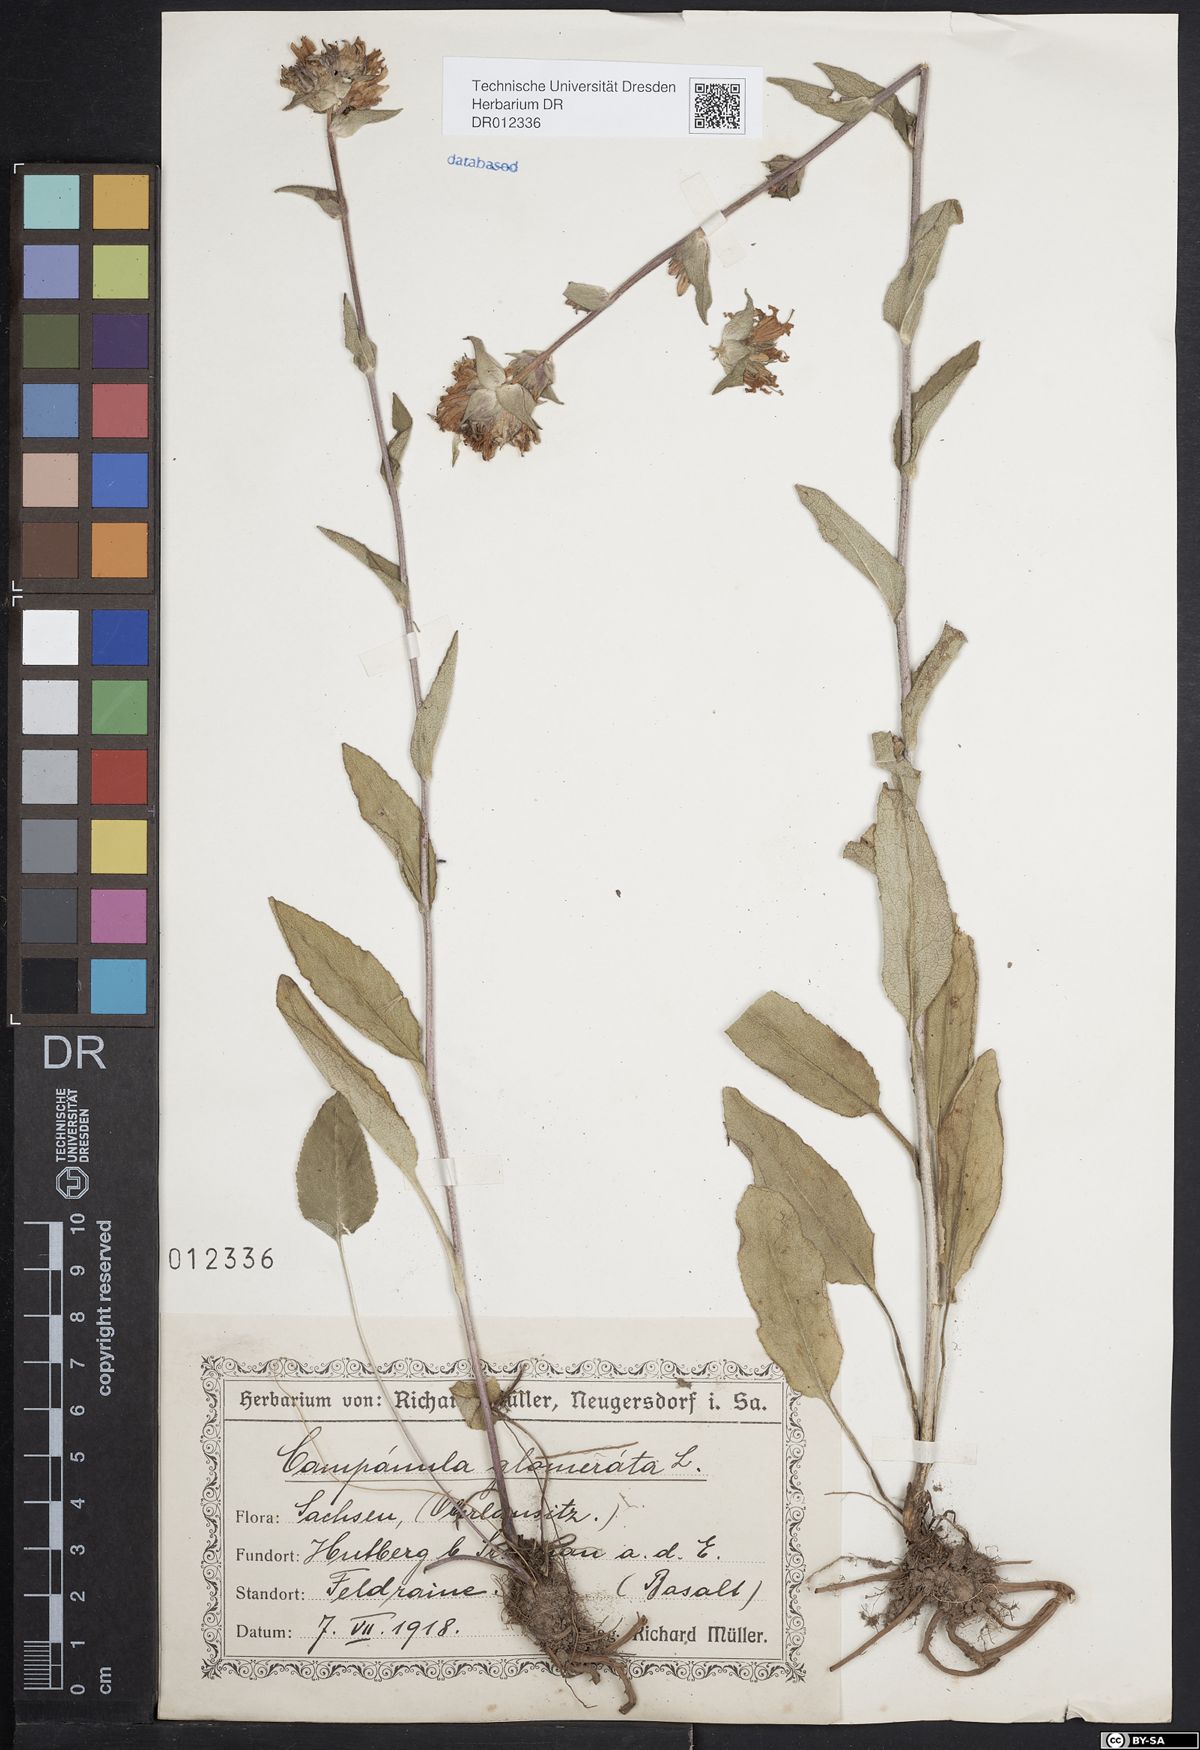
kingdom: Plantae
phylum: Tracheophyta
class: Magnoliopsida
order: Asterales
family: Campanulaceae
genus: Campanula
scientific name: Campanula glomerata
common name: Clustered bellflower
